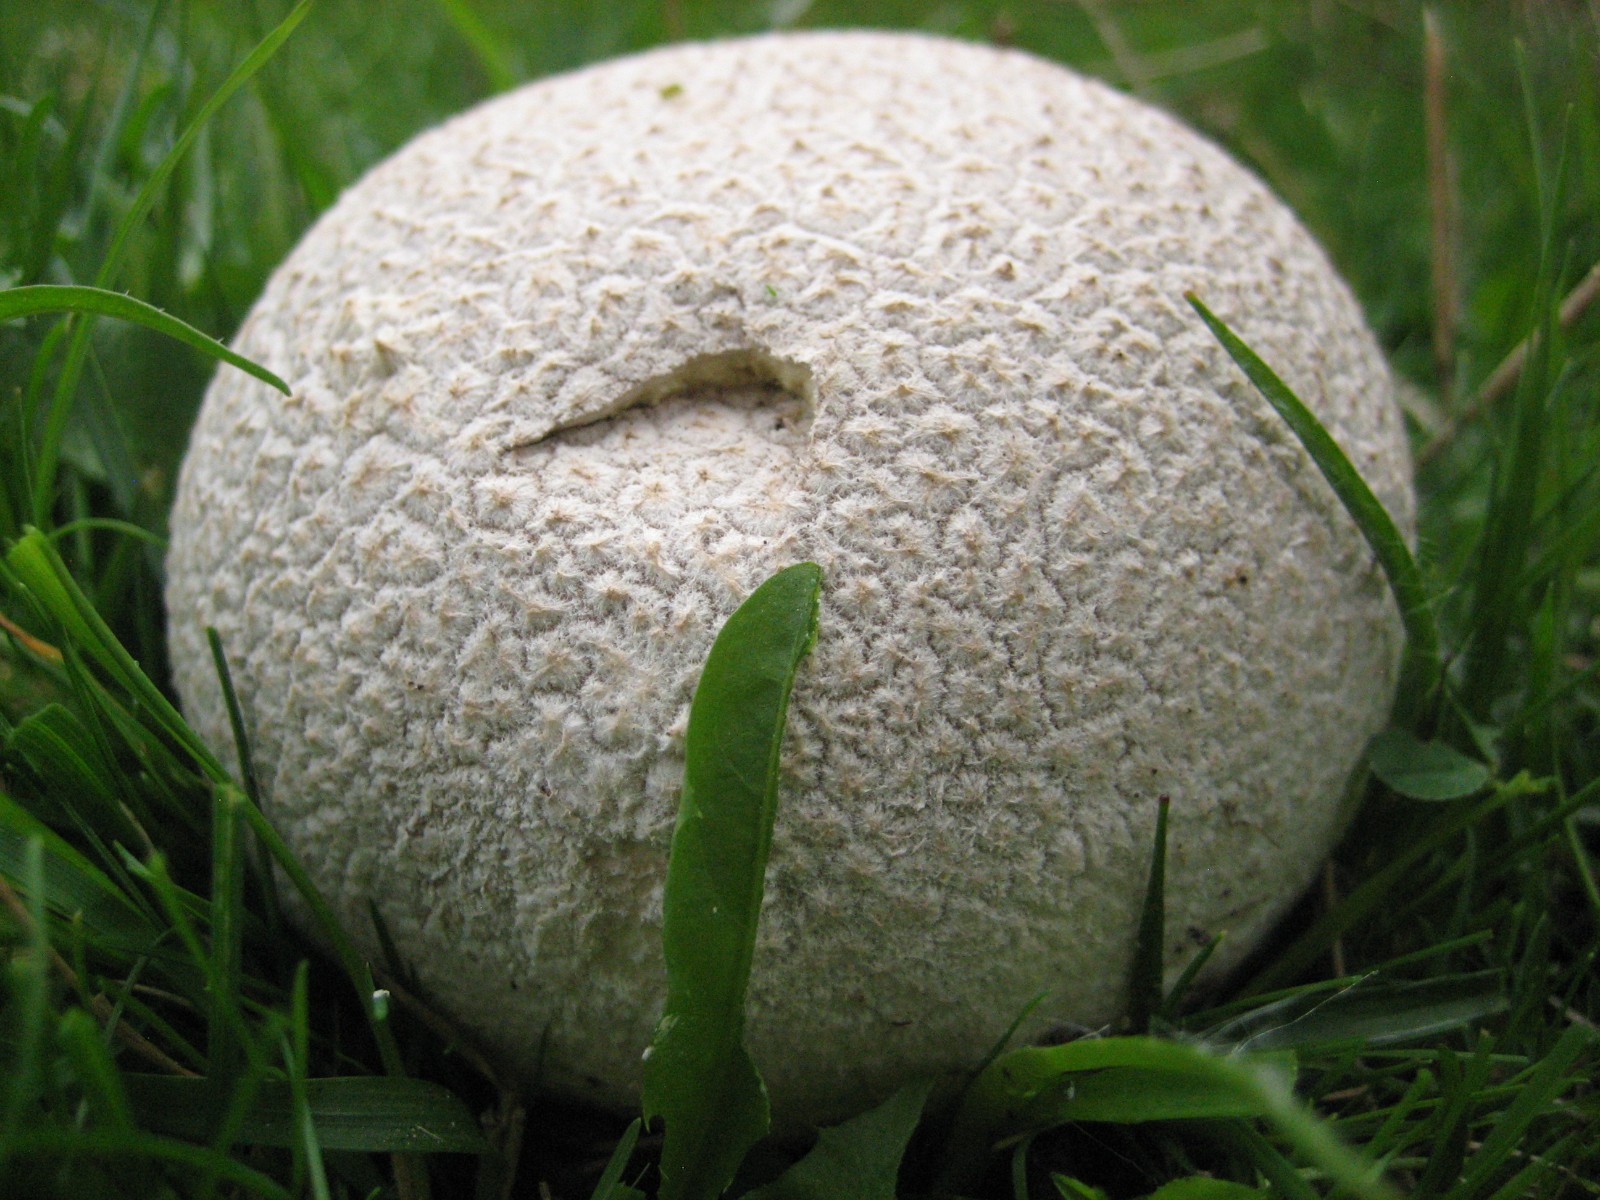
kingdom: Fungi
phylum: Basidiomycota
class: Agaricomycetes
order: Agaricales
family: Lycoperdaceae
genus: Bovistella
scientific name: Bovistella utriformis
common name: skællet støvbold
